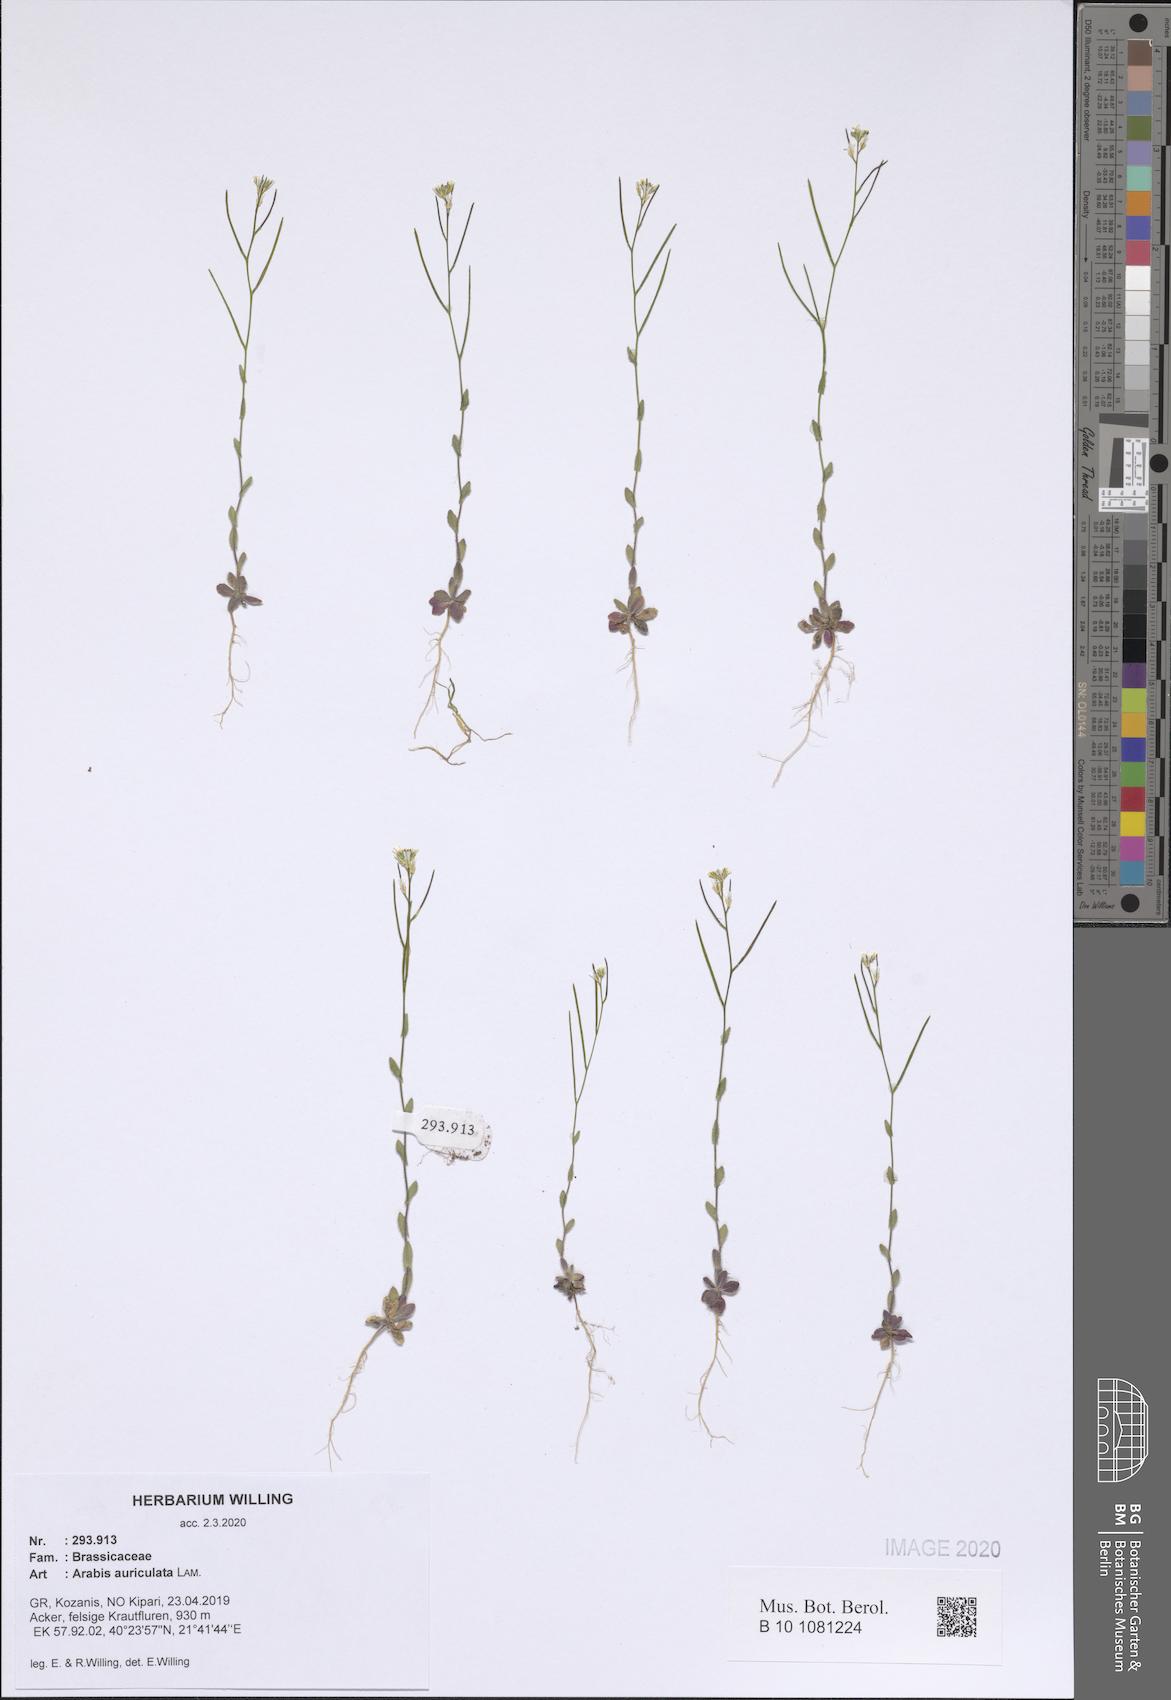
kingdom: Plantae
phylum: Tracheophyta
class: Magnoliopsida
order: Brassicales
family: Brassicaceae
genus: Arabis
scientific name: Arabis auriculata
